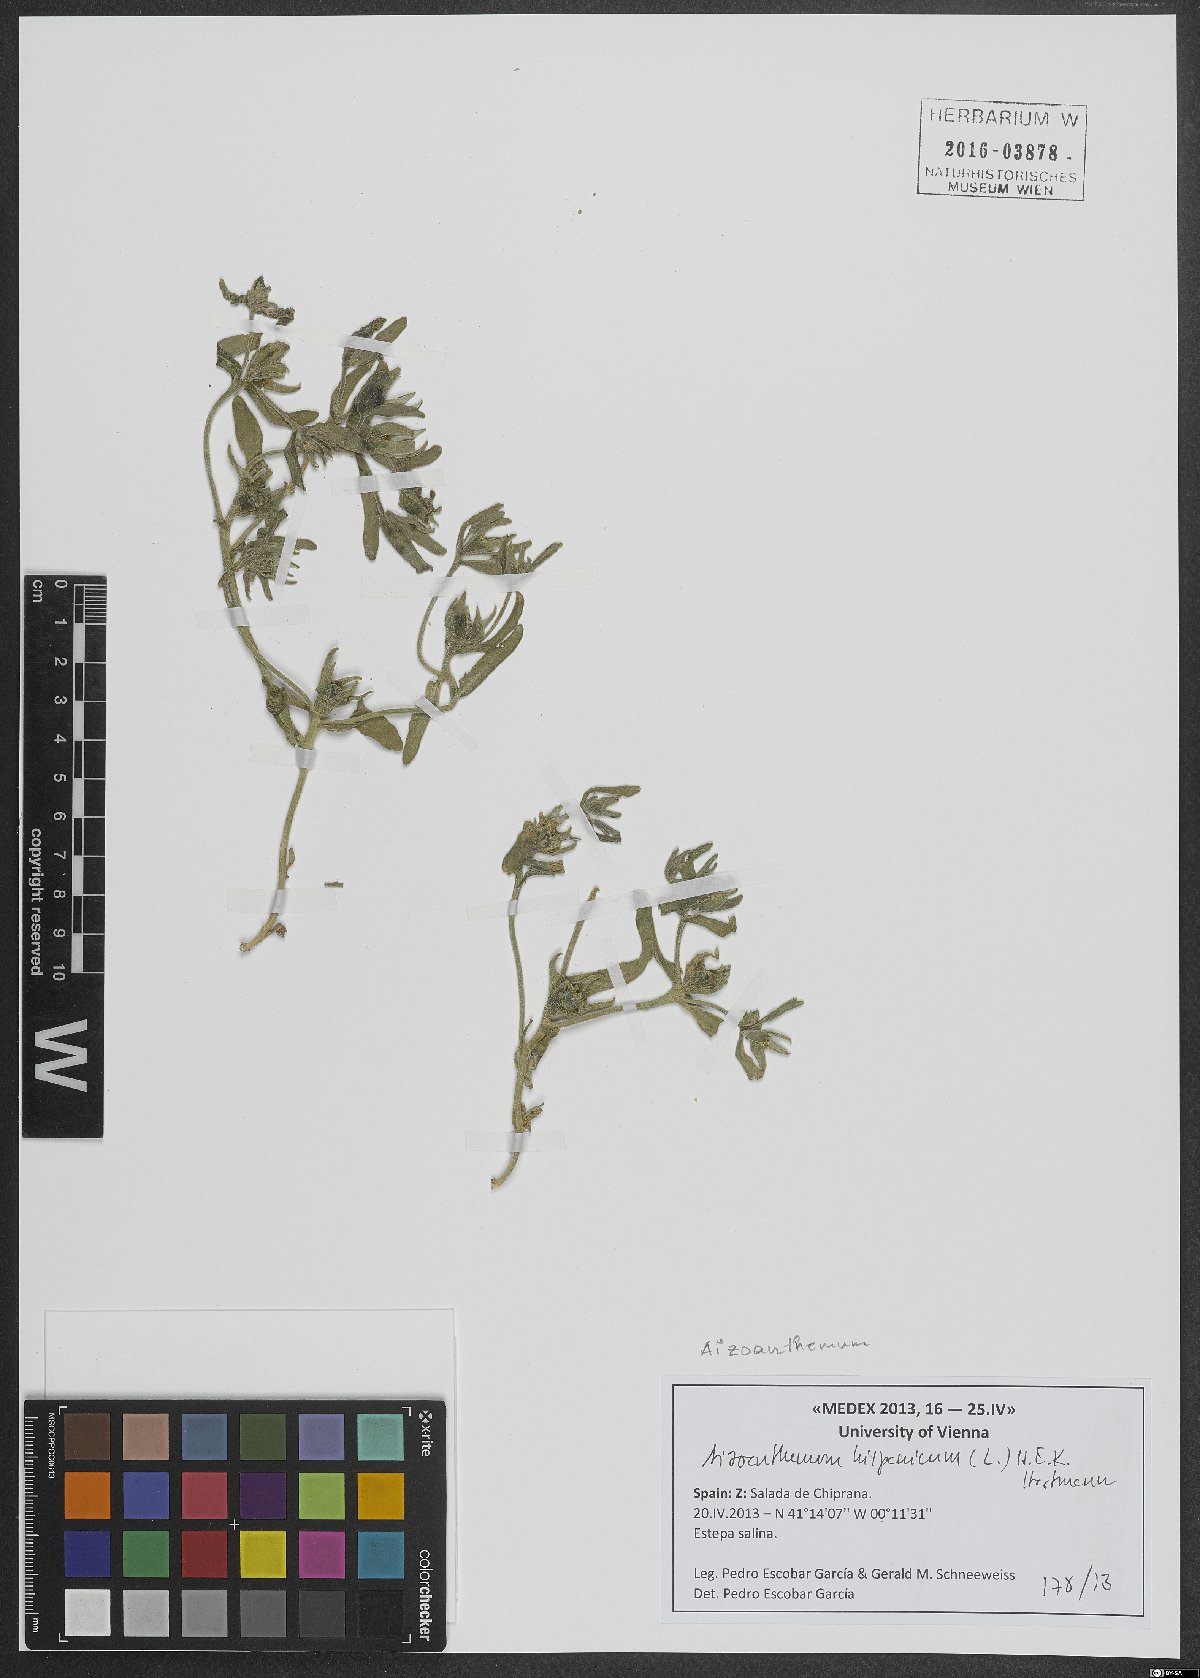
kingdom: Plantae
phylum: Tracheophyta
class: Magnoliopsida
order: Caryophyllales
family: Aizoaceae
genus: Aizoanthemopsis
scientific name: Aizoanthemopsis hispanica
